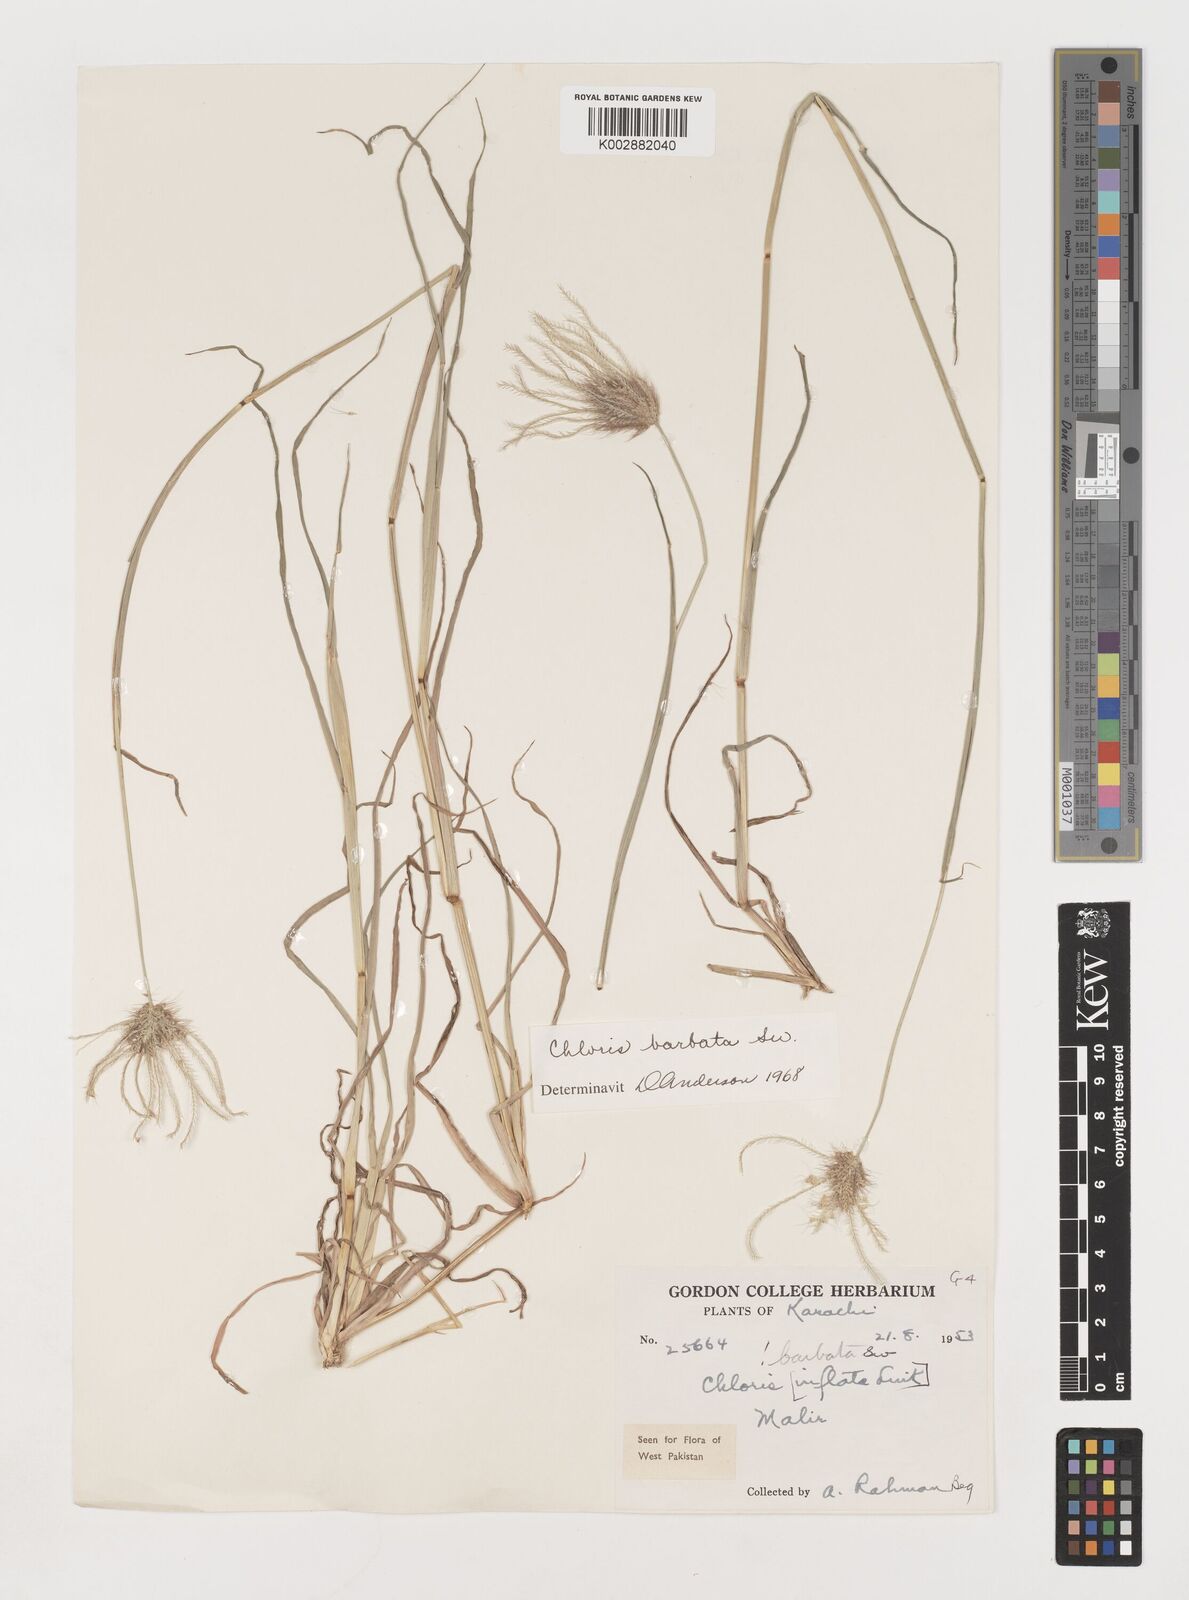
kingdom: Plantae
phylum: Tracheophyta
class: Liliopsida
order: Poales
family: Poaceae
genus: Chloris
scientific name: Chloris barbata
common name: Swollen fingergrass
